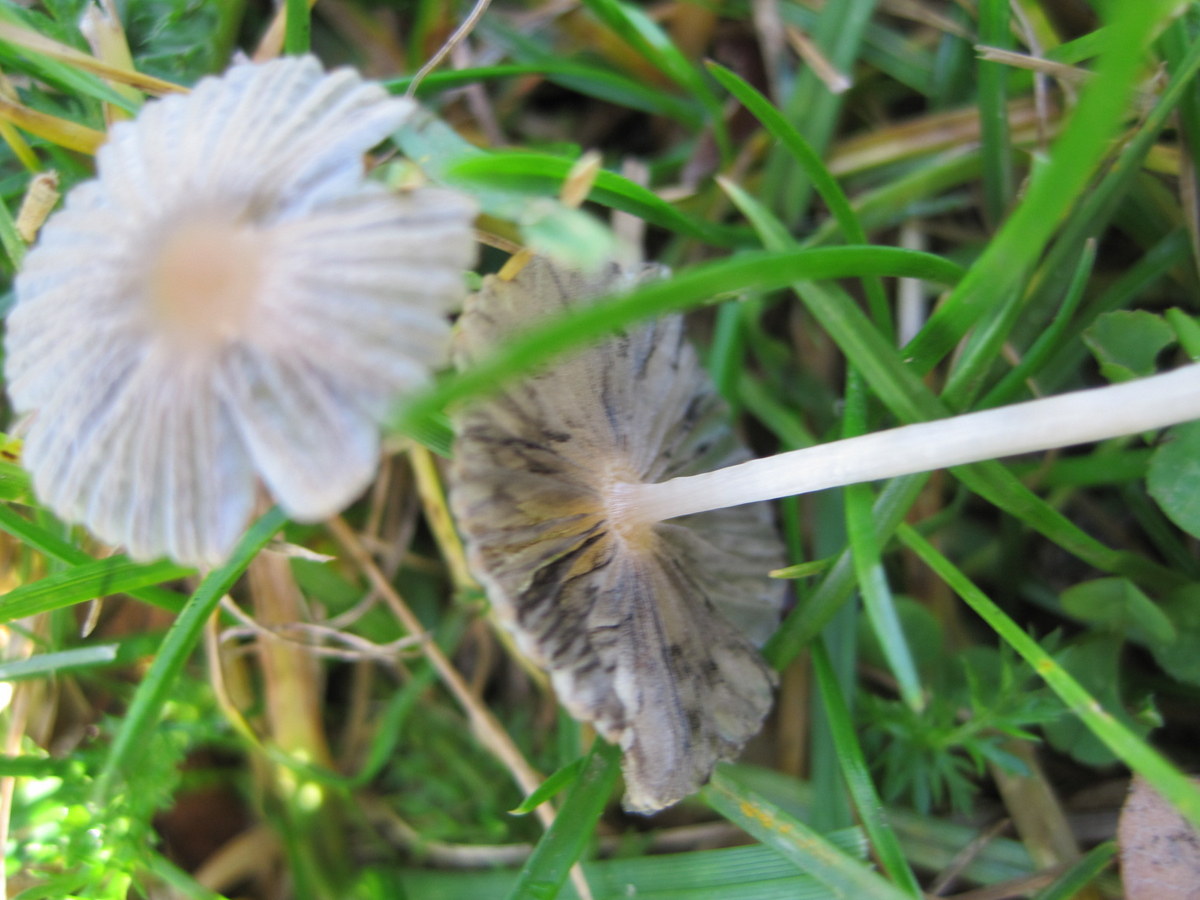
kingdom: Fungi
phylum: Basidiomycota
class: Agaricomycetes
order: Agaricales
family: Psathyrellaceae
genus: Parasola
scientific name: Parasola
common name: hjulhat
